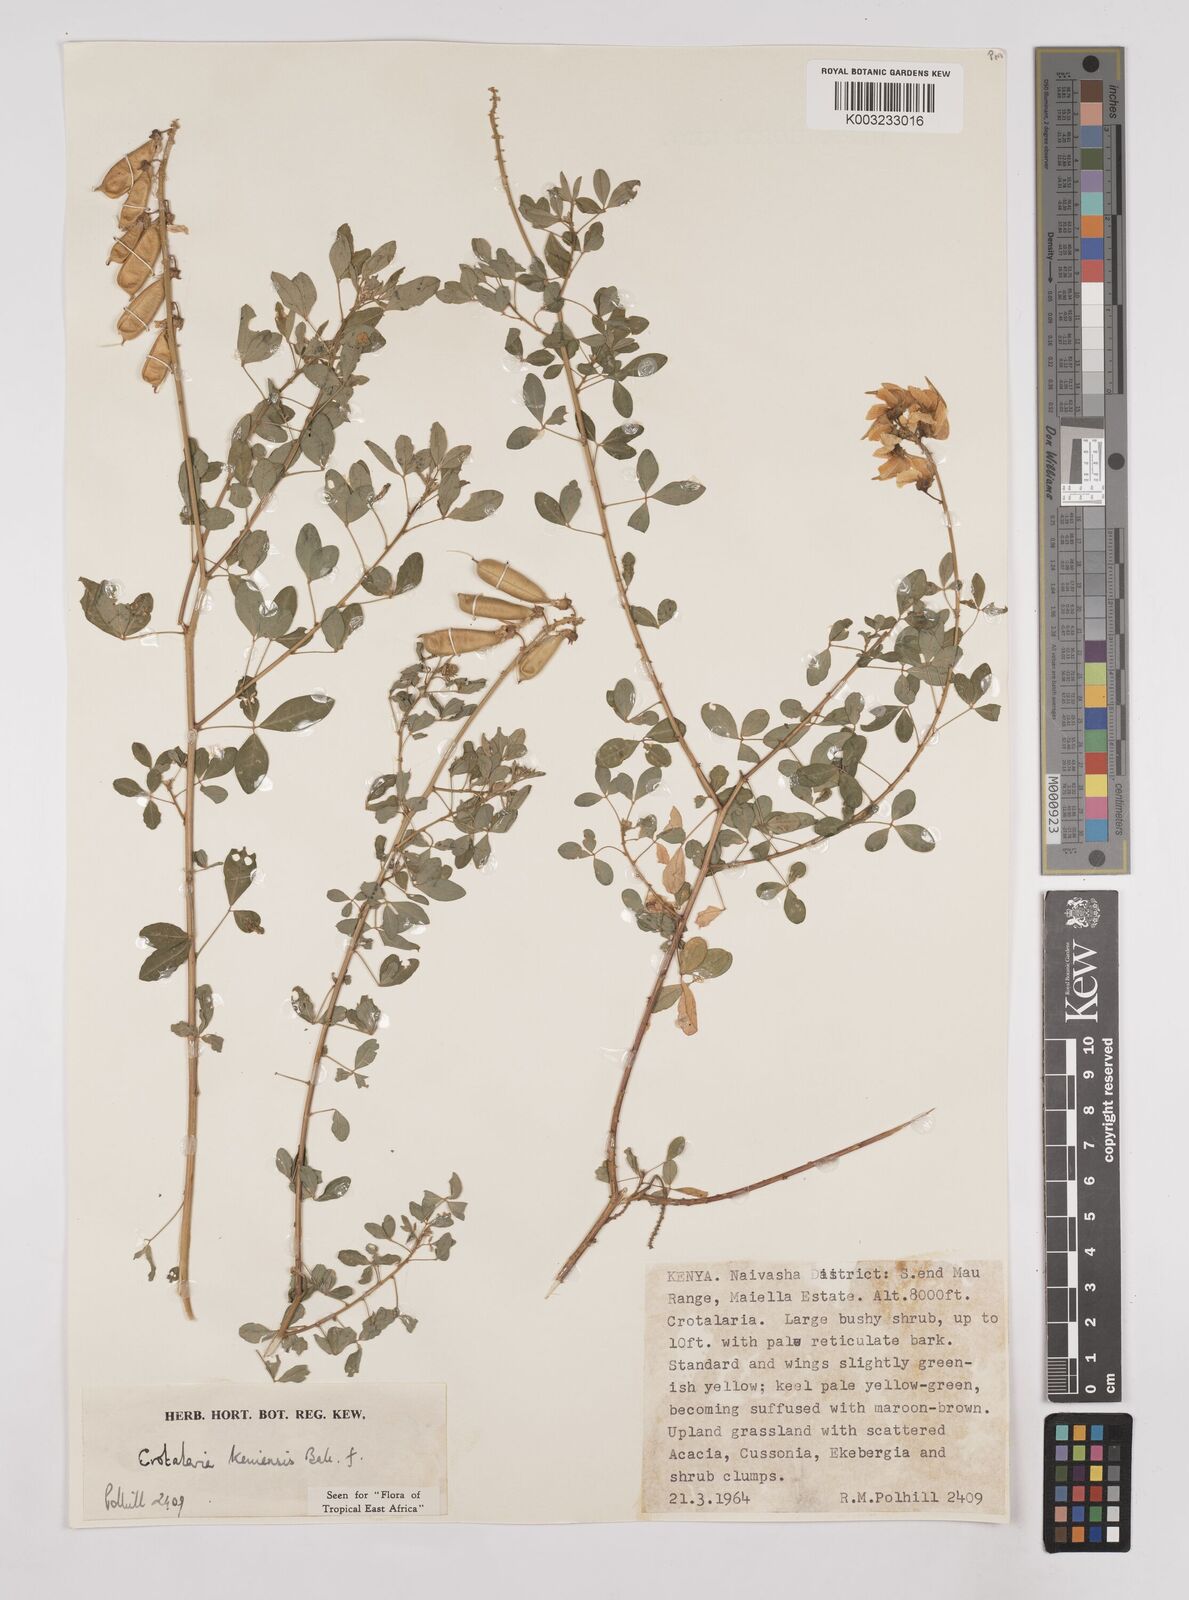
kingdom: Plantae
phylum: Tracheophyta
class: Magnoliopsida
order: Fabales
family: Fabaceae
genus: Crotalaria
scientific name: Crotalaria keniensis
